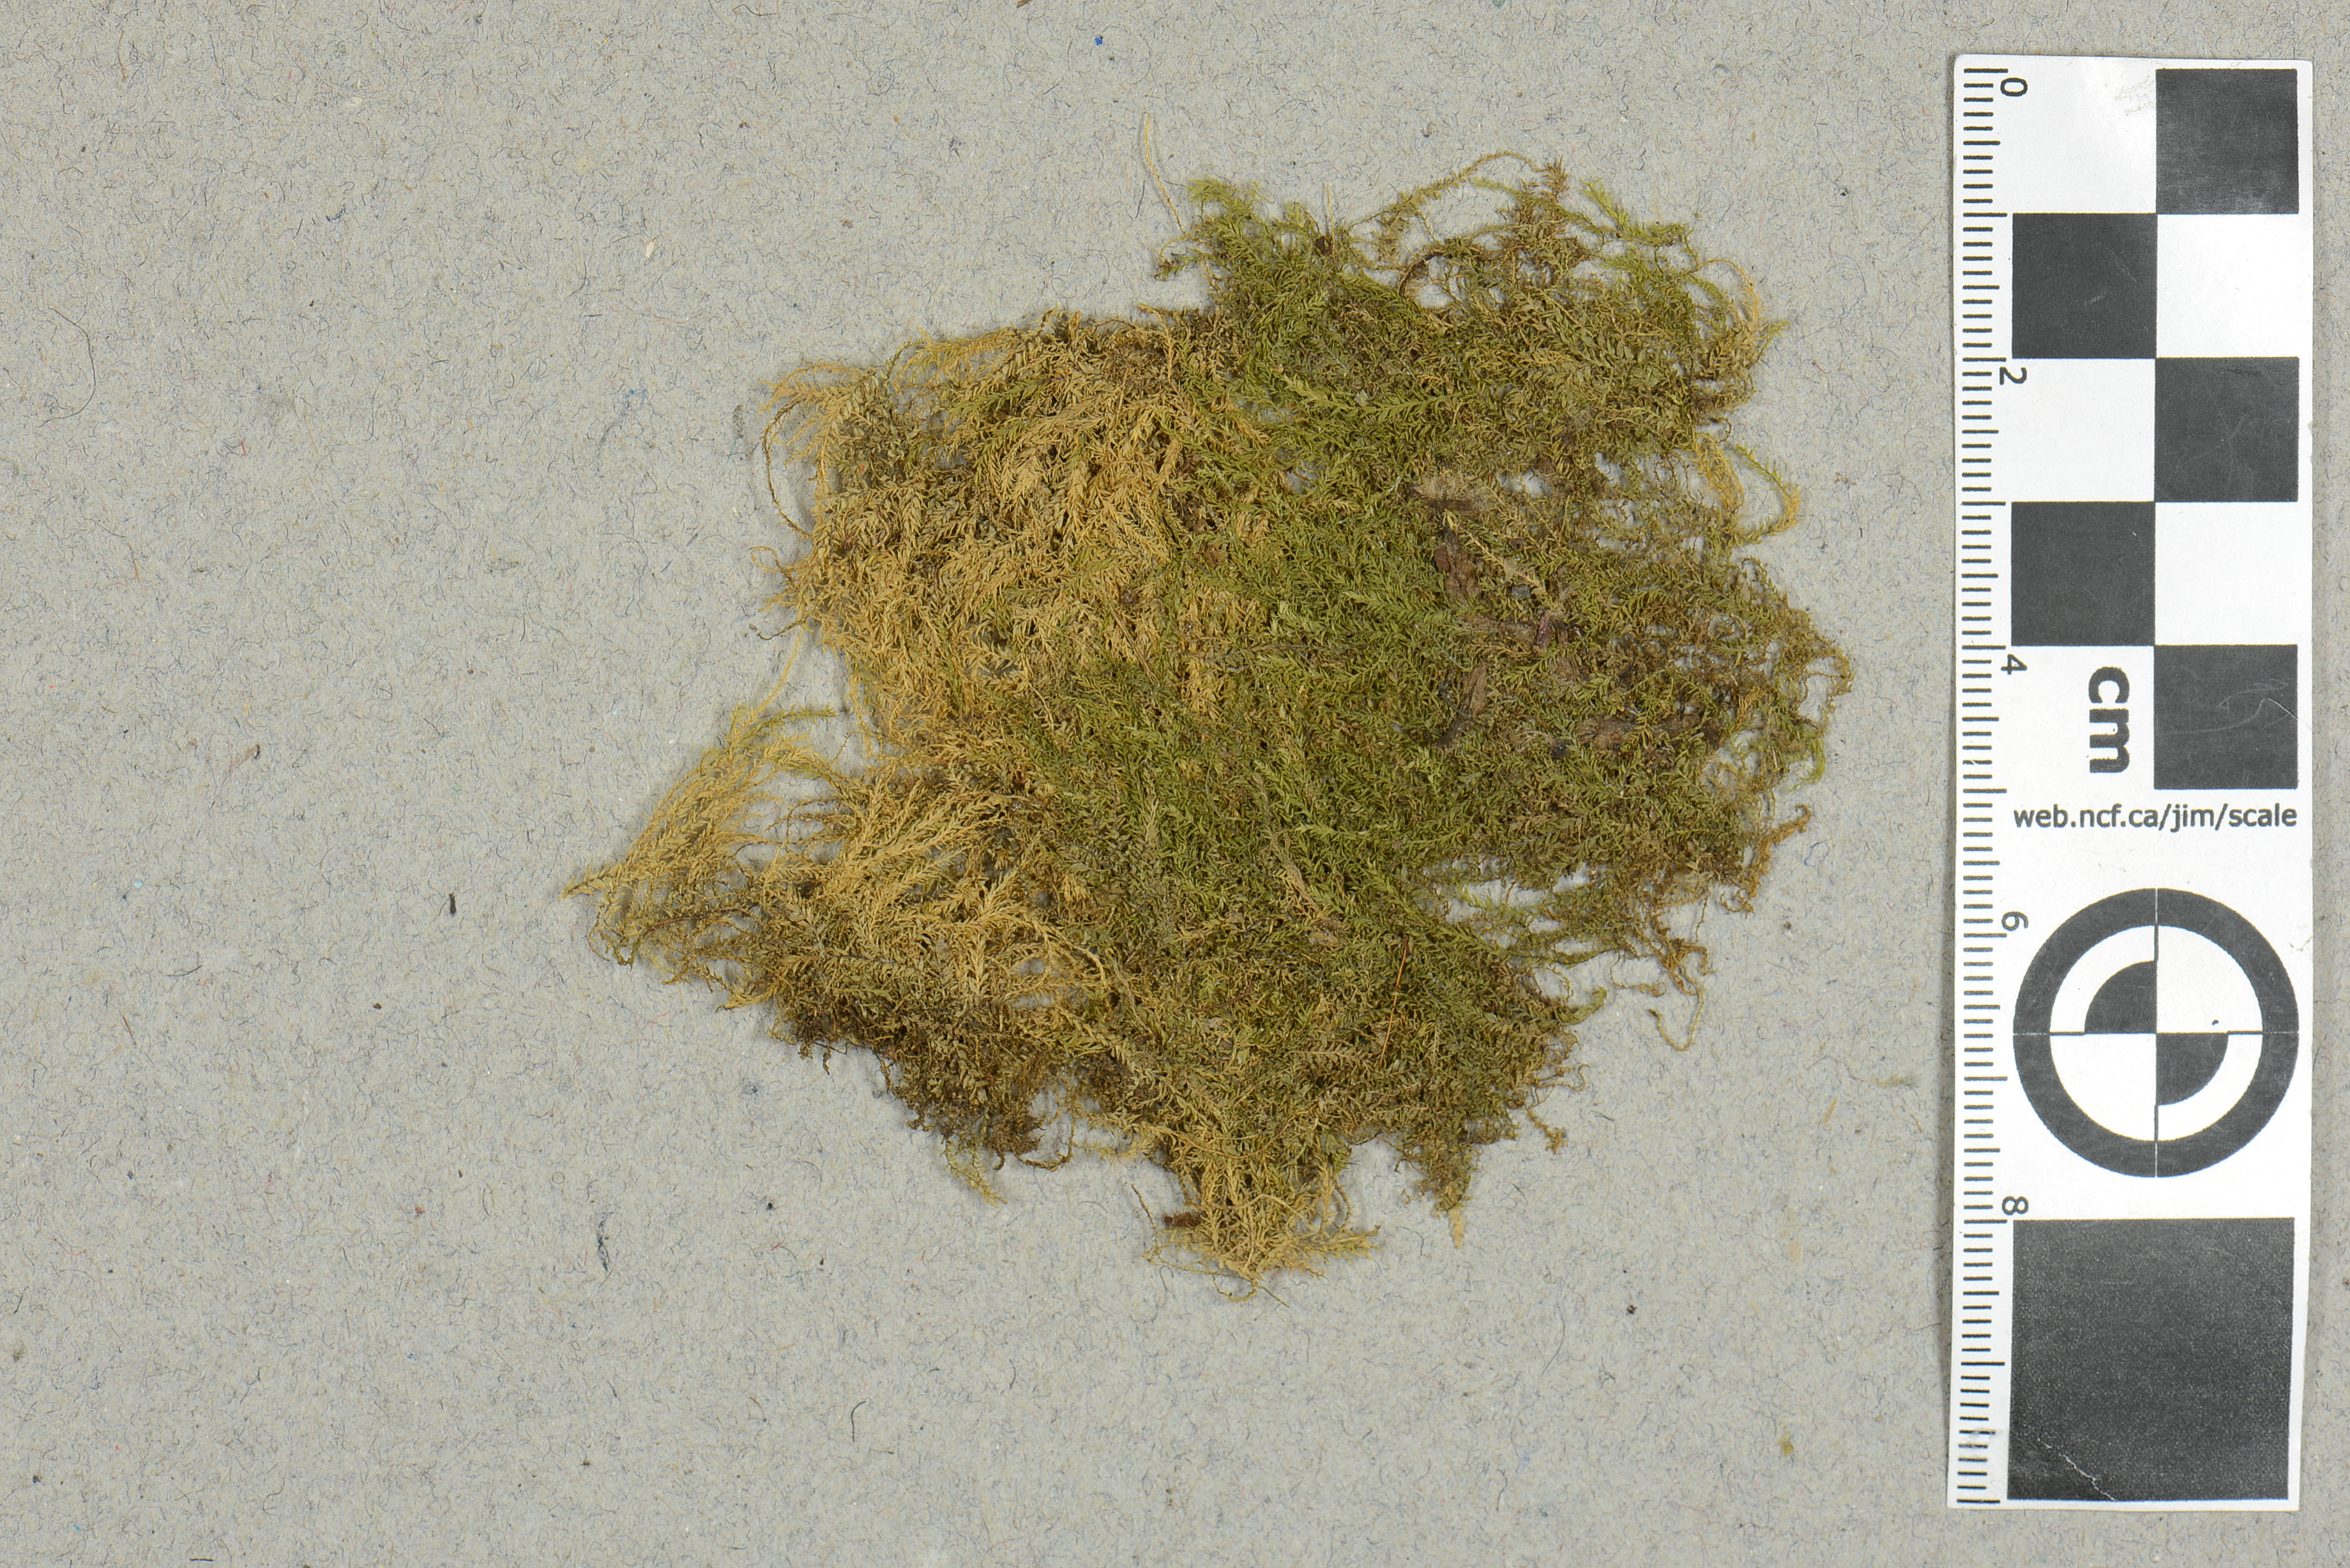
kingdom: Plantae
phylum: Bryophyta
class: Bryopsida
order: Hypnales
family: Brachytheciaceae
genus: Eurhynchium
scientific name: Eurhynchium tenuivagum
